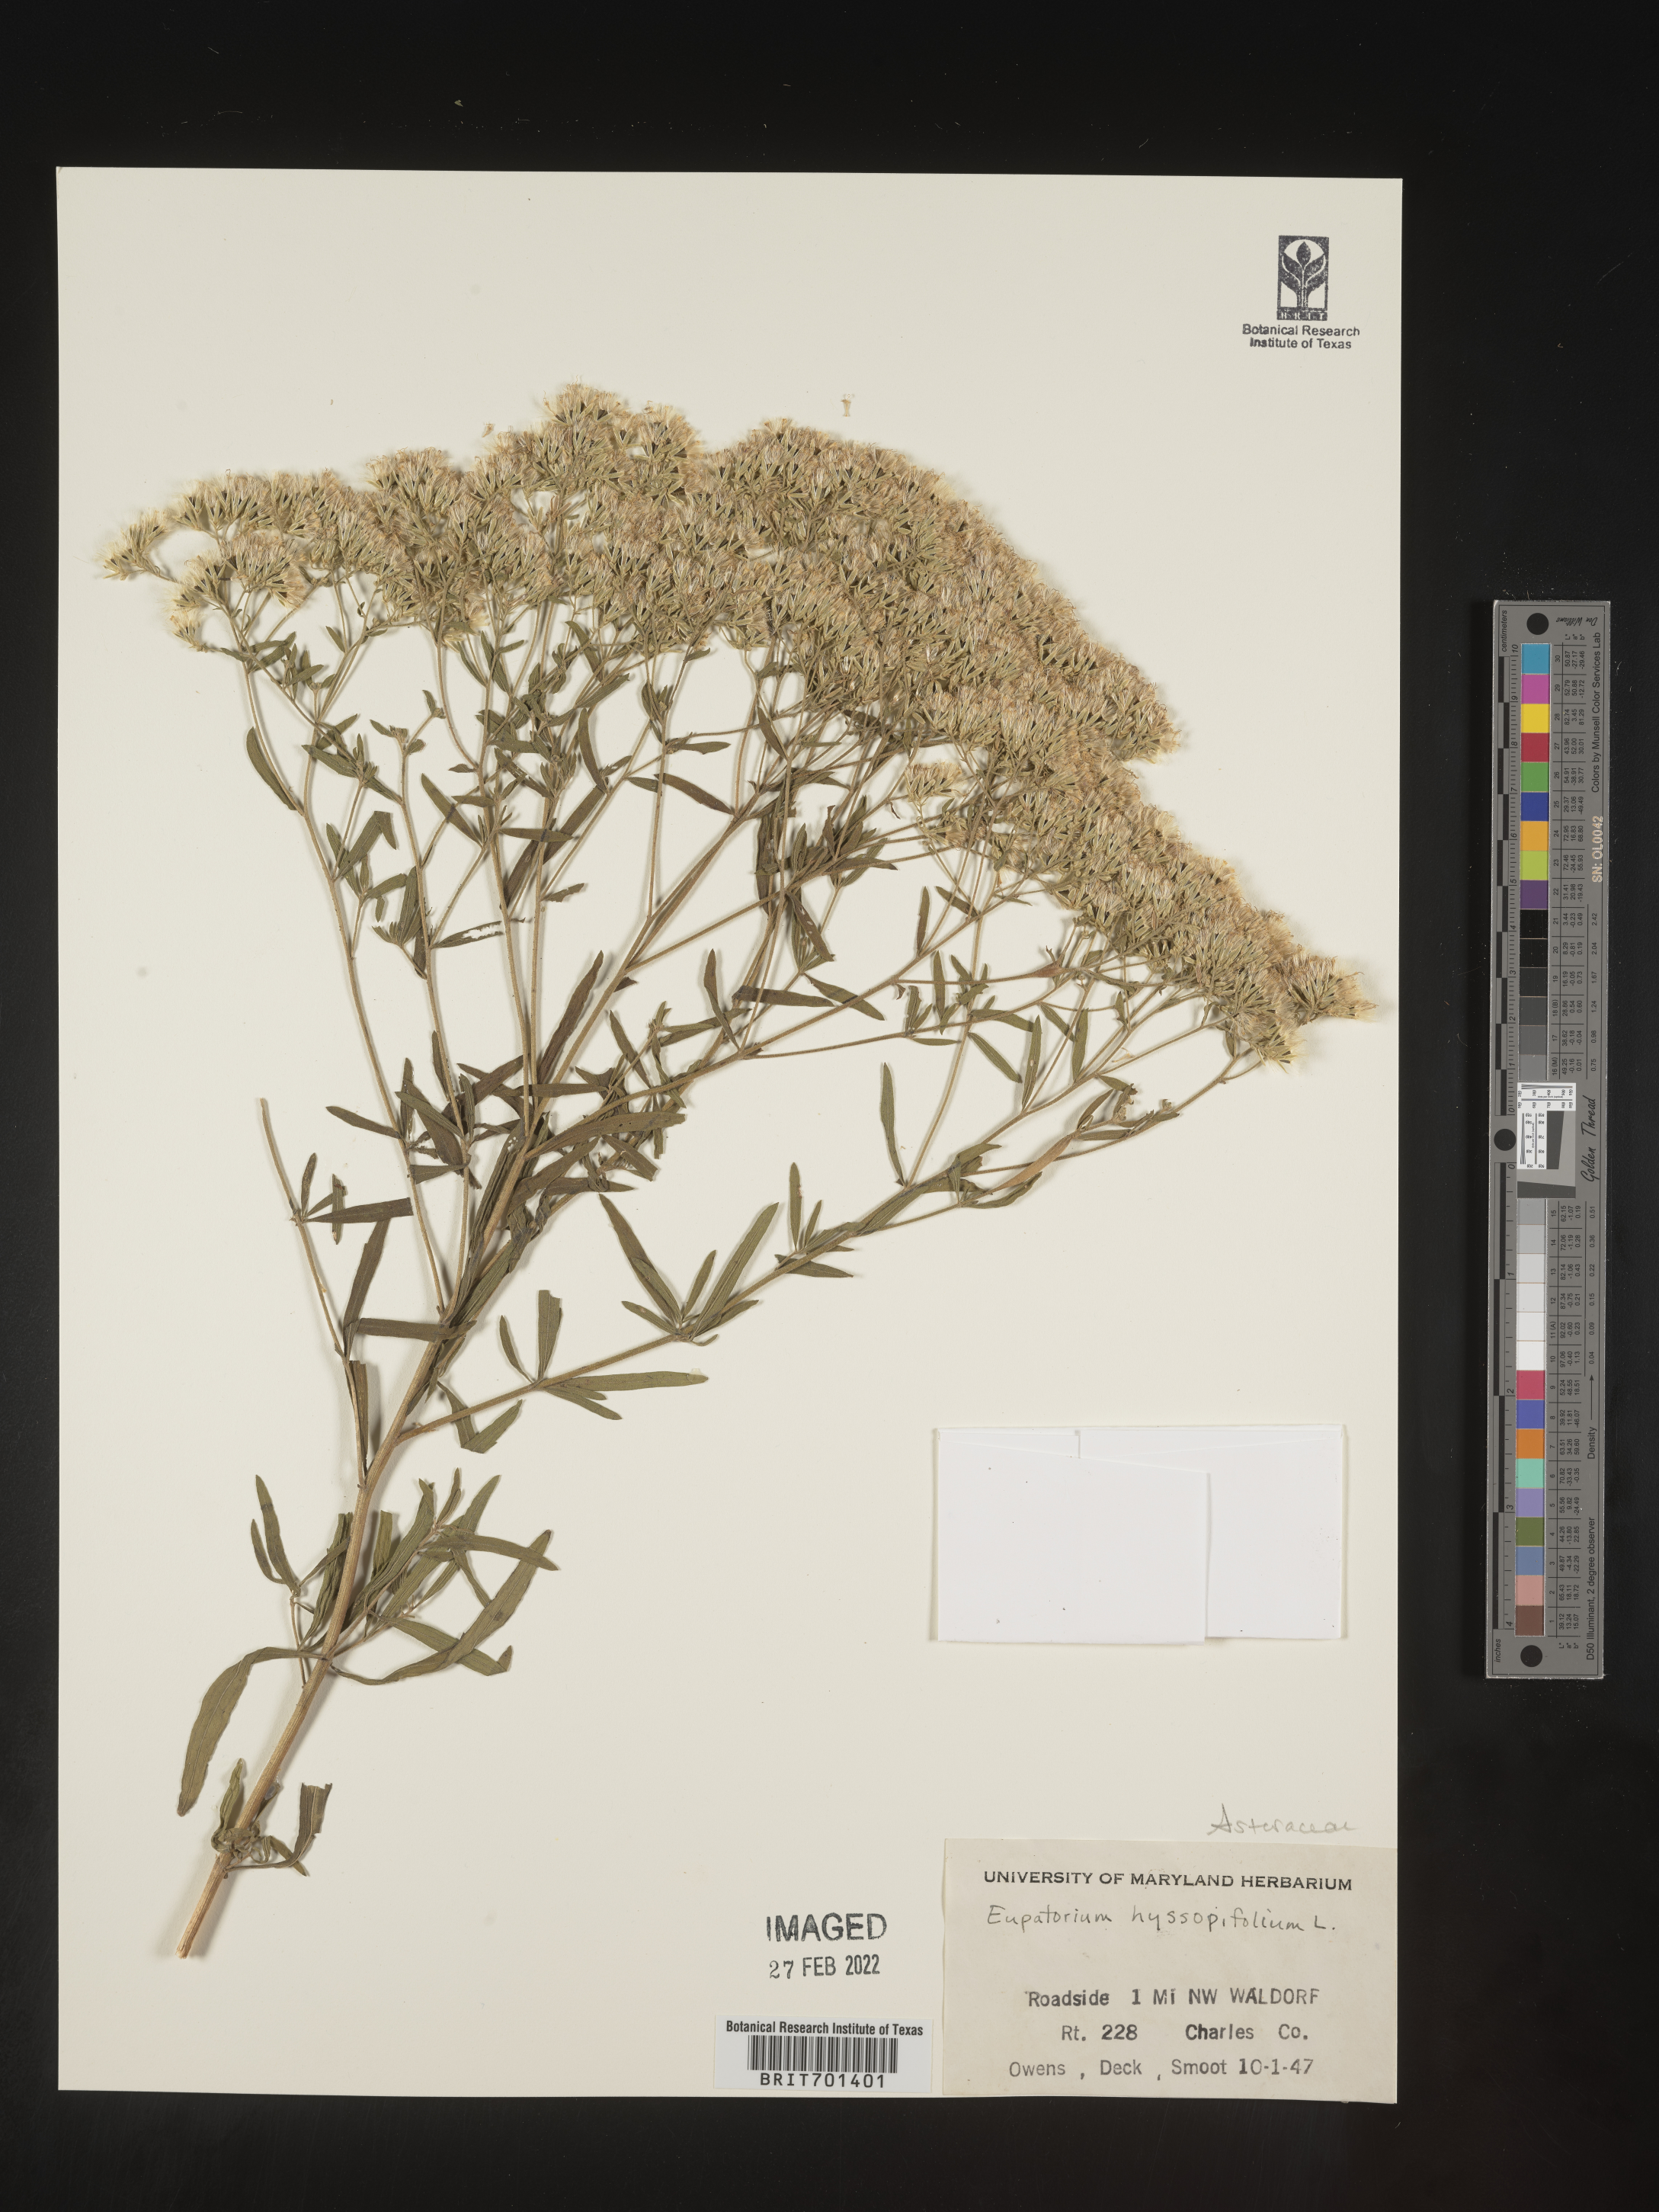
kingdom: Plantae
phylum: Tracheophyta
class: Magnoliopsida
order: Asterales
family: Asteraceae
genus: Eupatorium
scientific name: Eupatorium hyssopifolium
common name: Hyssop-leaf thoroughwort
